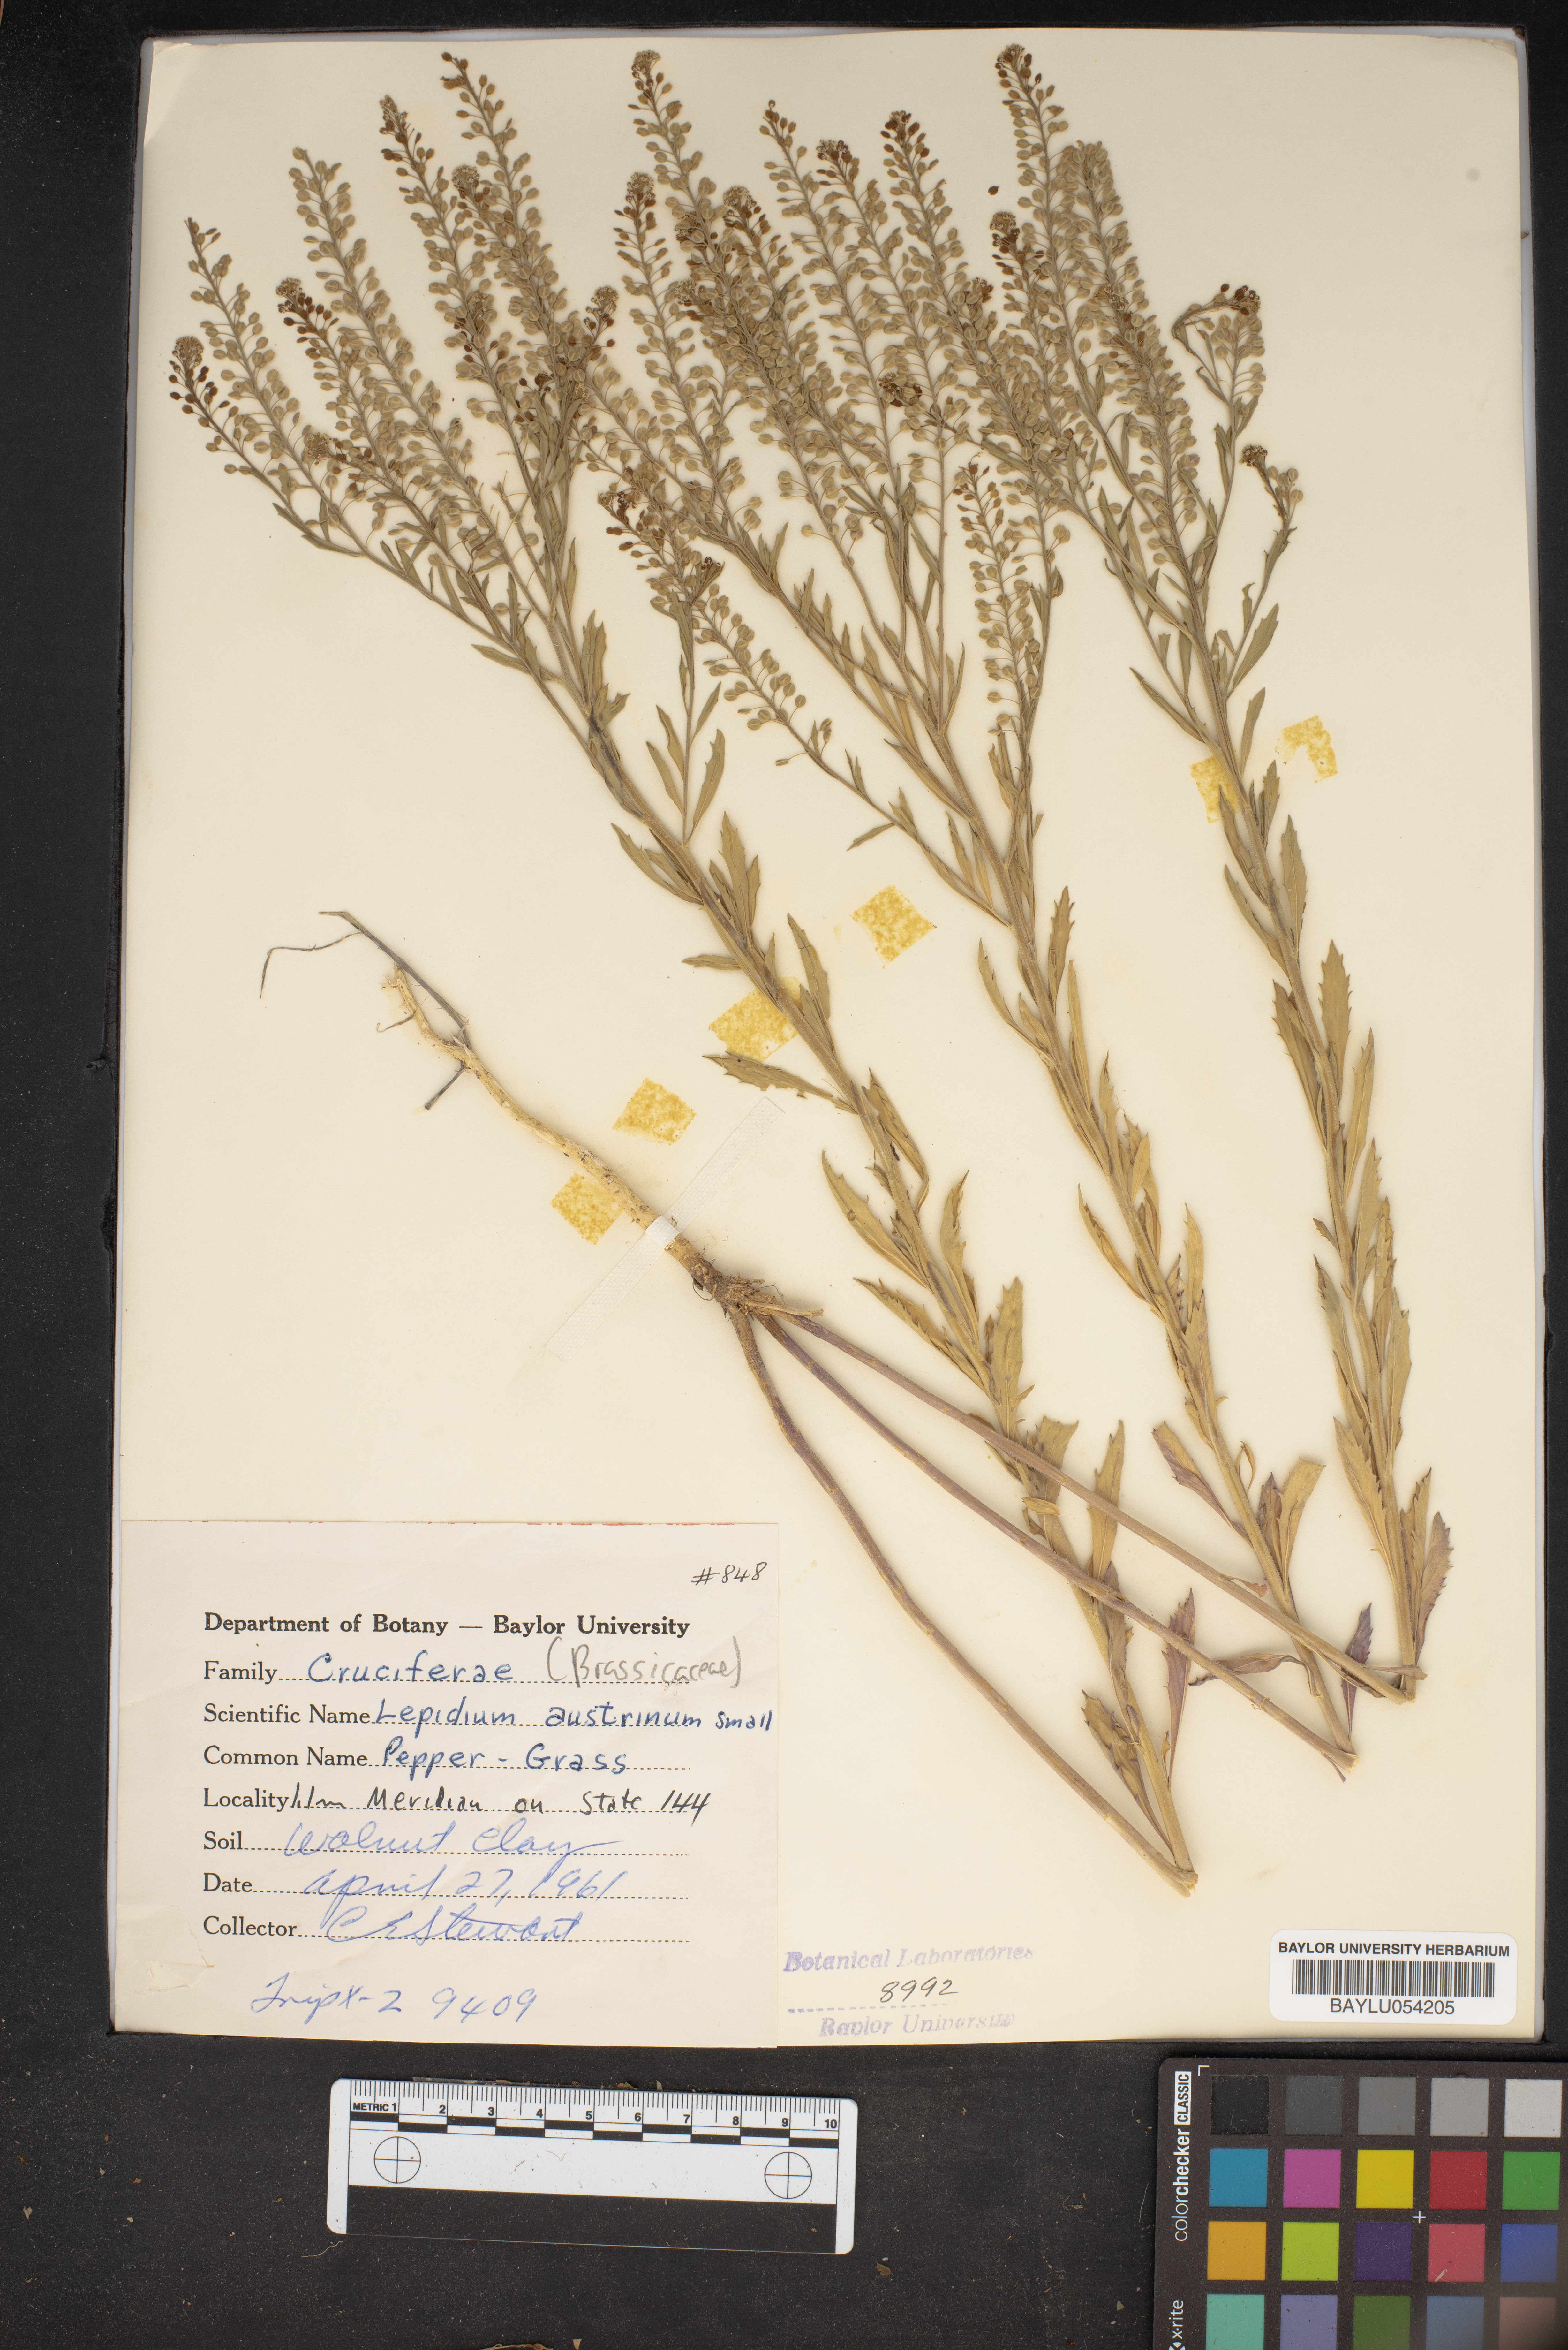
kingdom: Plantae
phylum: Tracheophyta
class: Magnoliopsida
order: Brassicales
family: Brassicaceae
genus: Lepidium
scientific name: Lepidium austrinum
